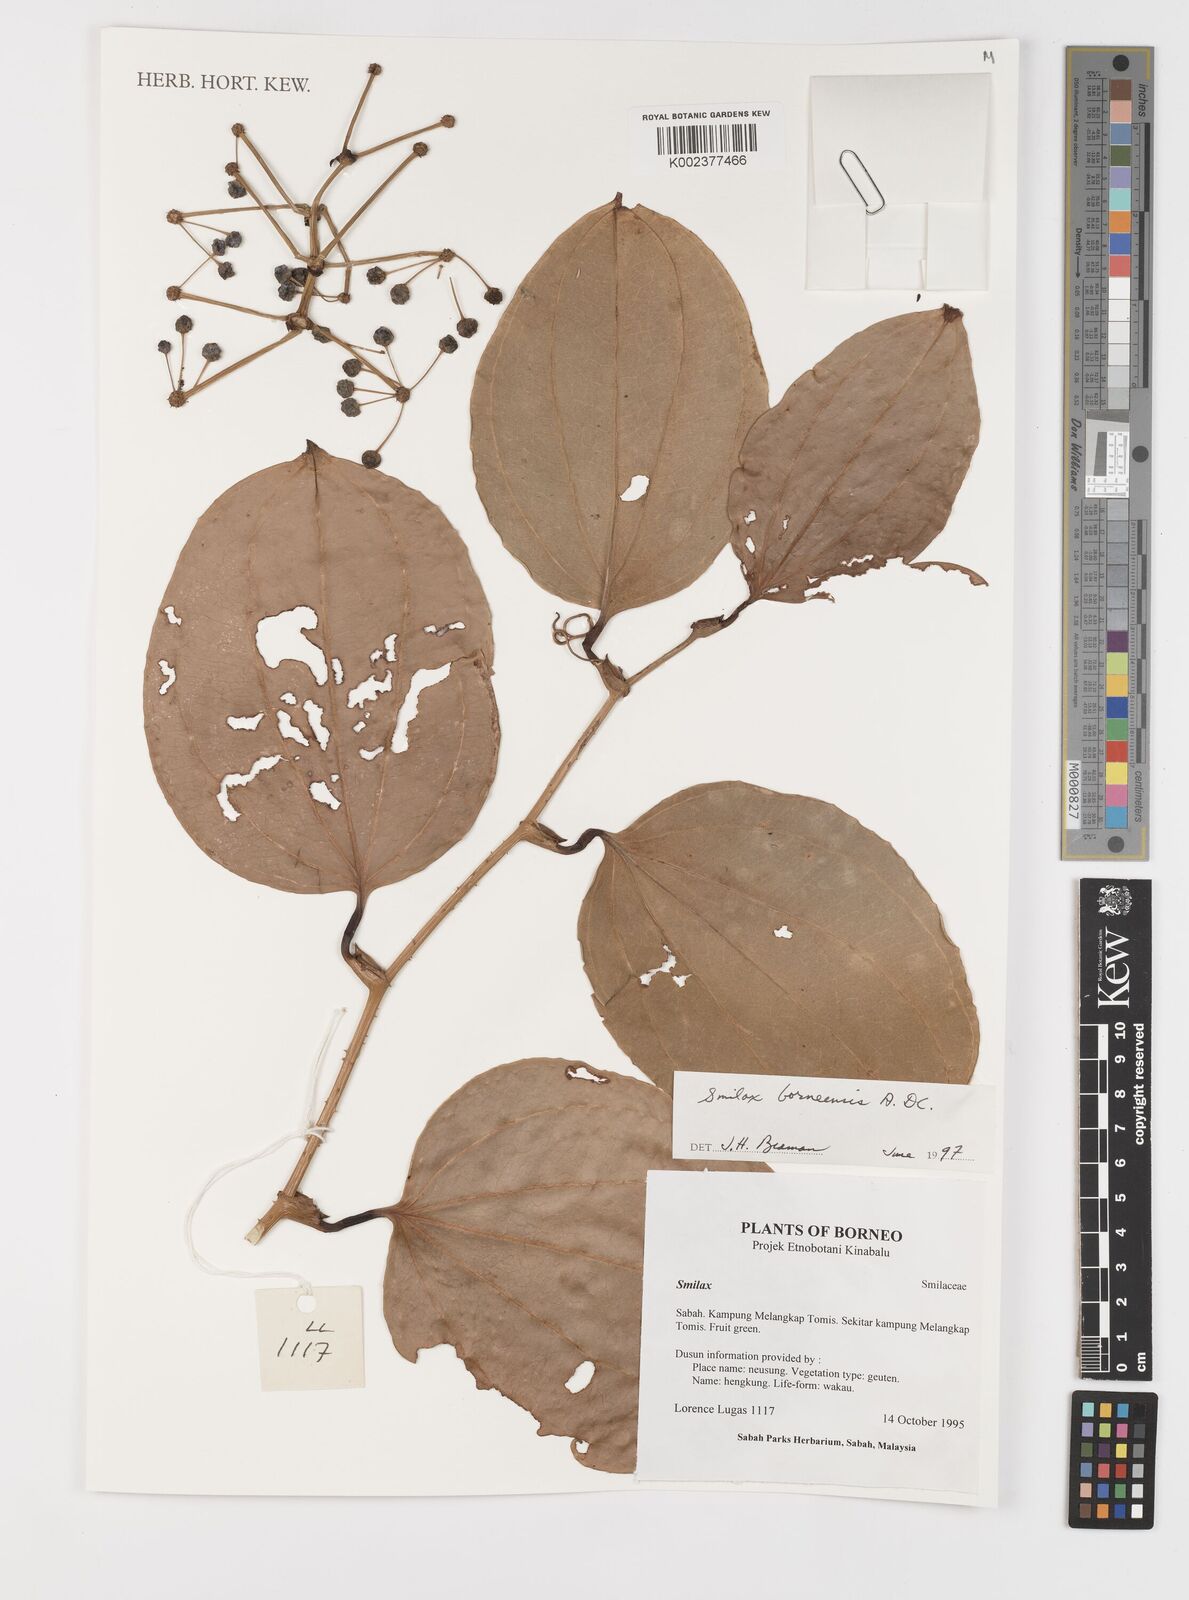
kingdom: Plantae
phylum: Tracheophyta
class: Liliopsida
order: Liliales
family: Smilacaceae
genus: Smilax
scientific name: Smilax borneensis
